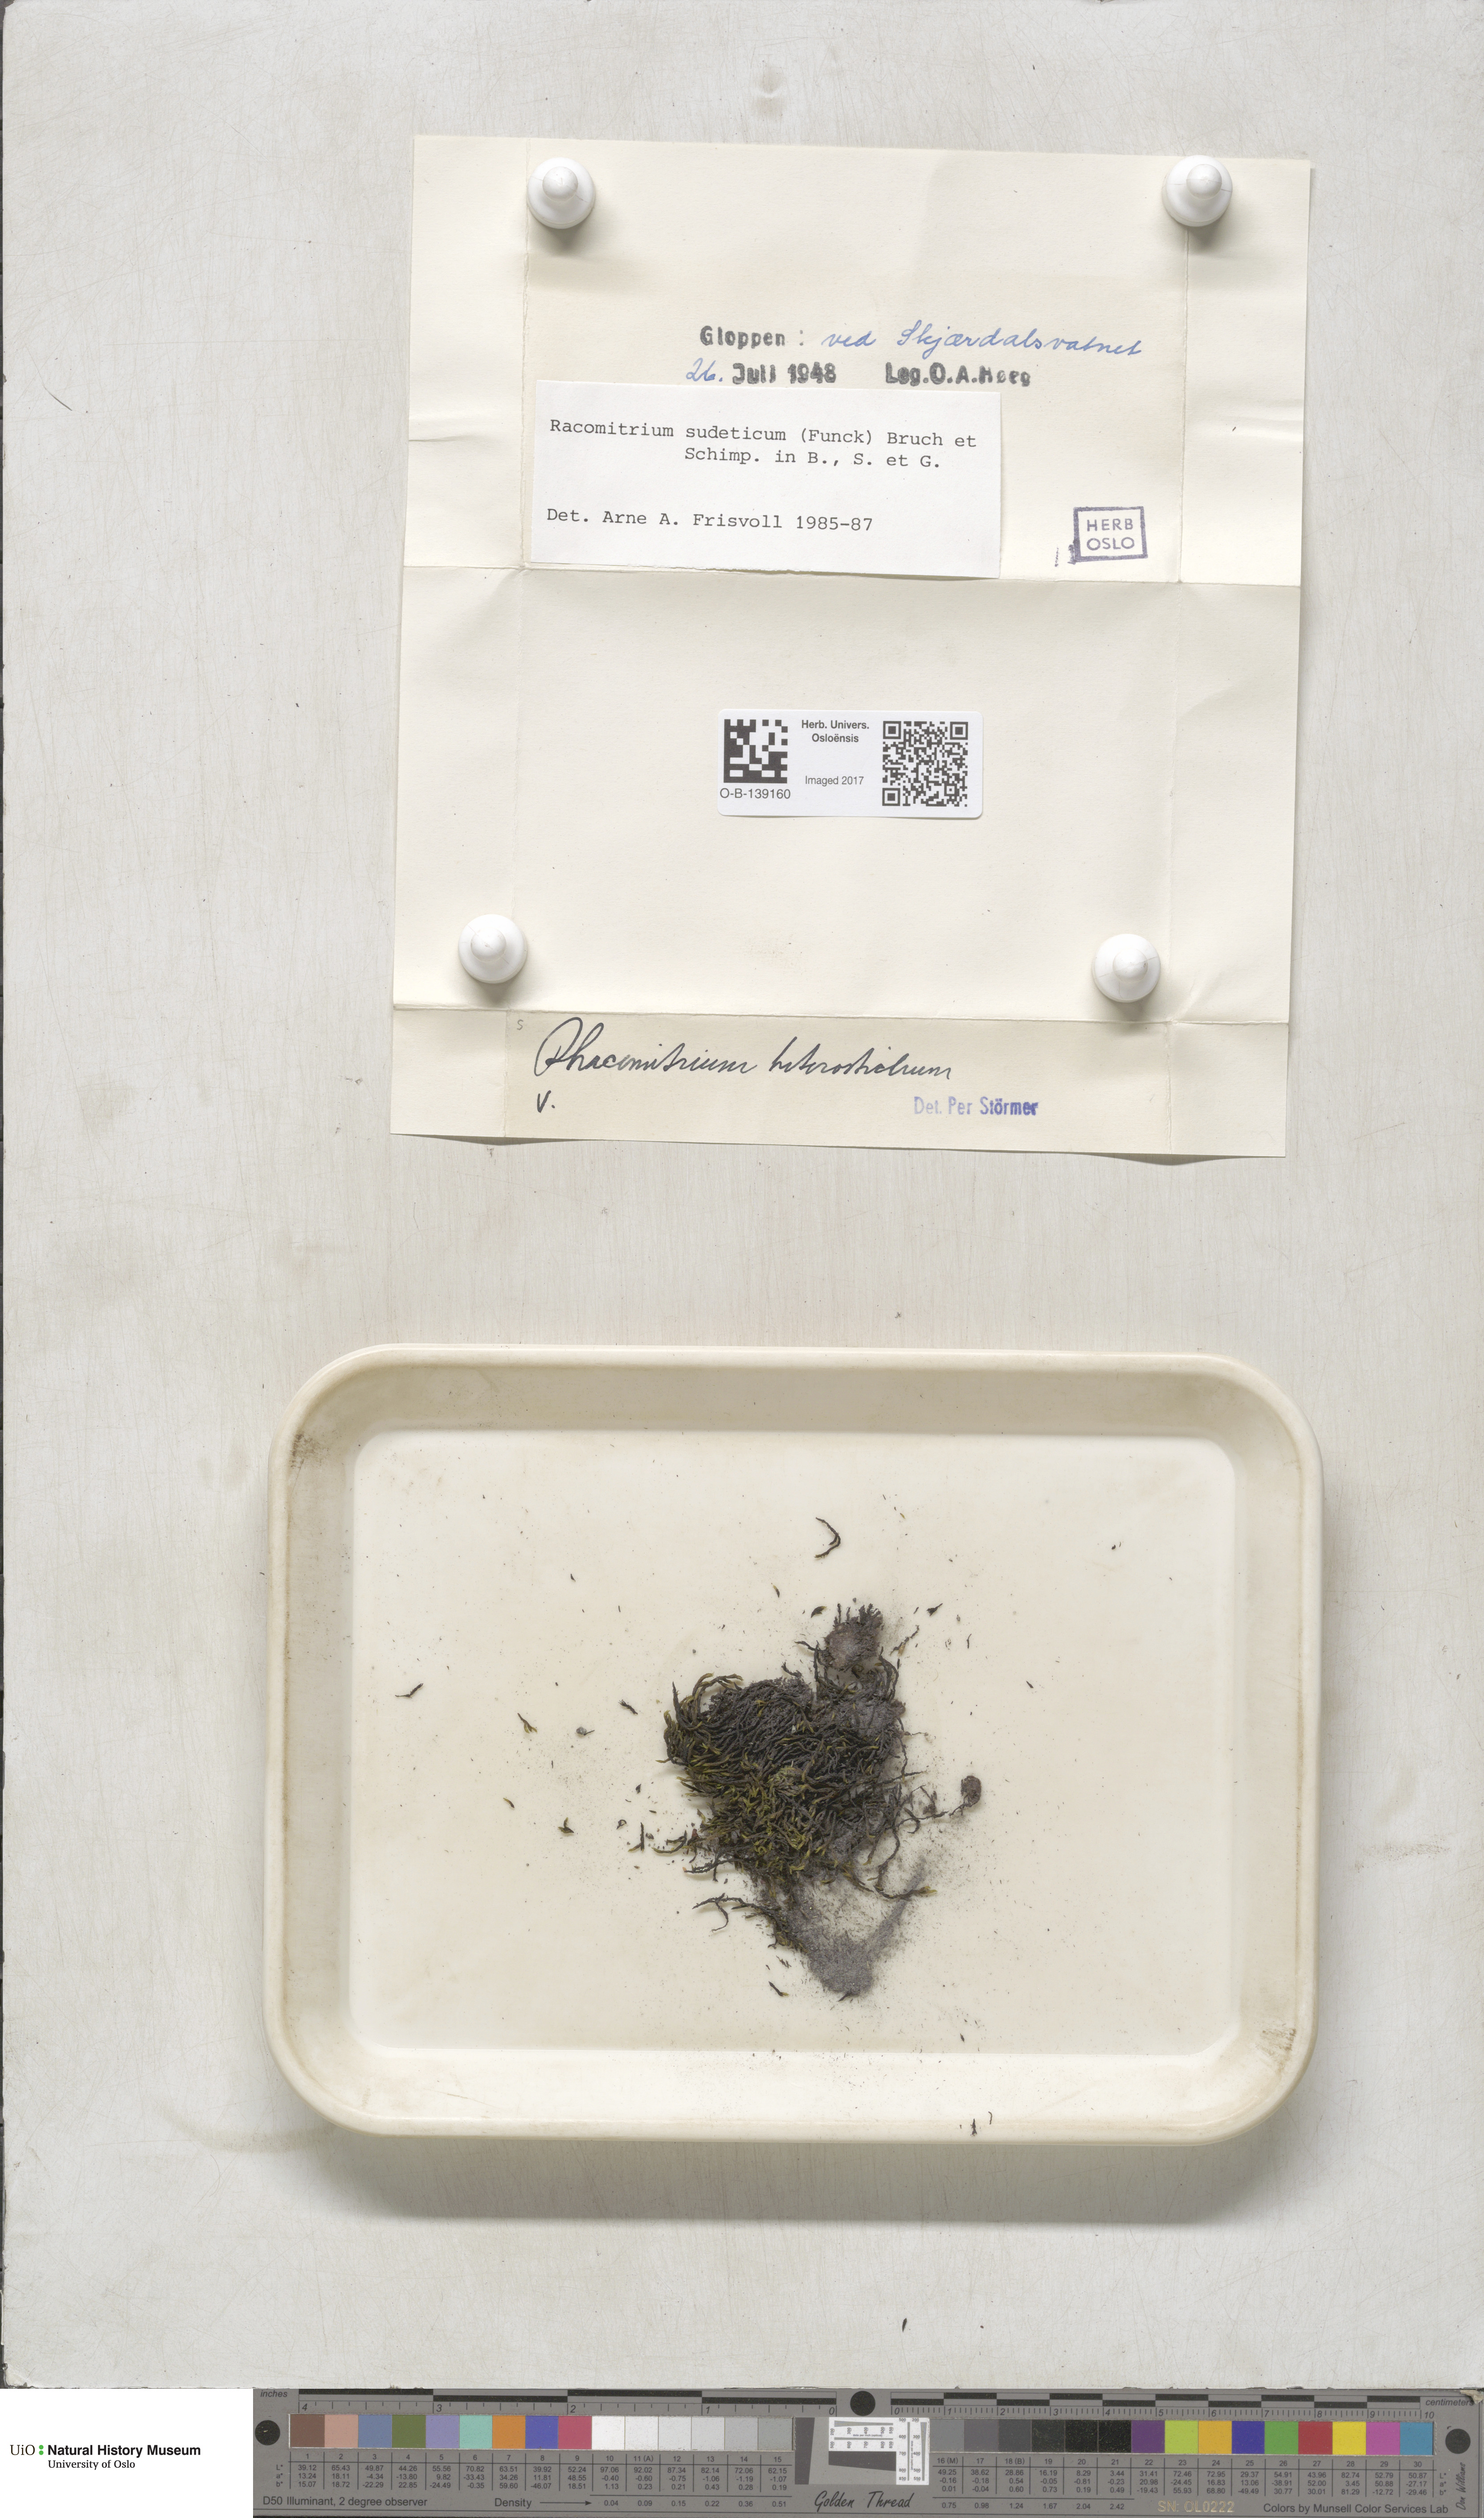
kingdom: Plantae
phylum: Bryophyta
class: Bryopsida
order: Grimmiales
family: Grimmiaceae
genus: Bucklandiella
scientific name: Bucklandiella sudetica
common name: Slender fringe-moss
